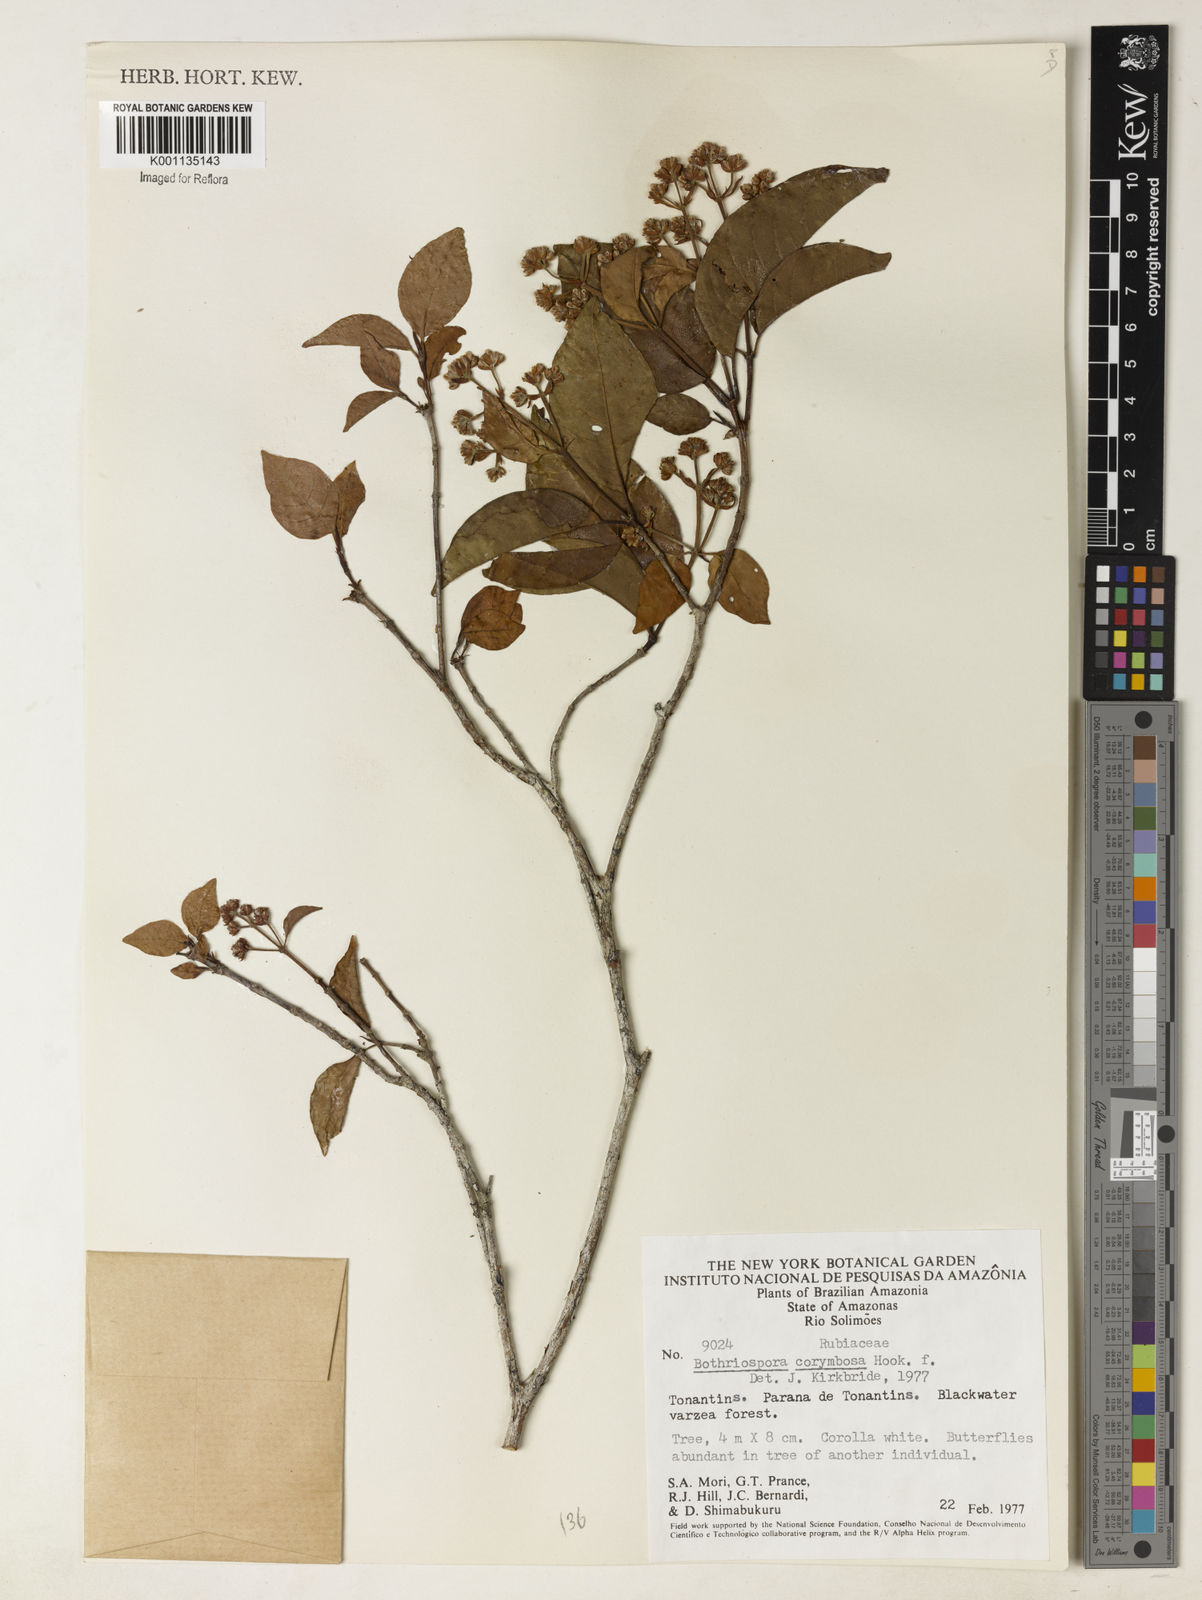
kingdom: Plantae
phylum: Tracheophyta
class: Magnoliopsida
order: Gentianales
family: Rubiaceae
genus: Bothriospora
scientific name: Bothriospora corymbosa
